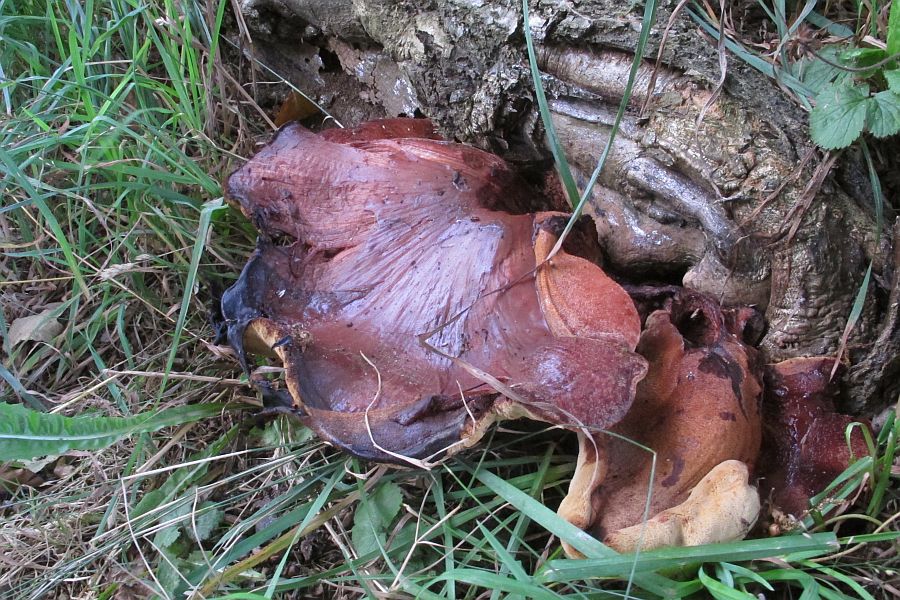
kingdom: Fungi
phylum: Basidiomycota
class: Agaricomycetes
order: Agaricales
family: Fistulinaceae
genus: Fistulina
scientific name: Fistulina hepatica
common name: oksetunge
